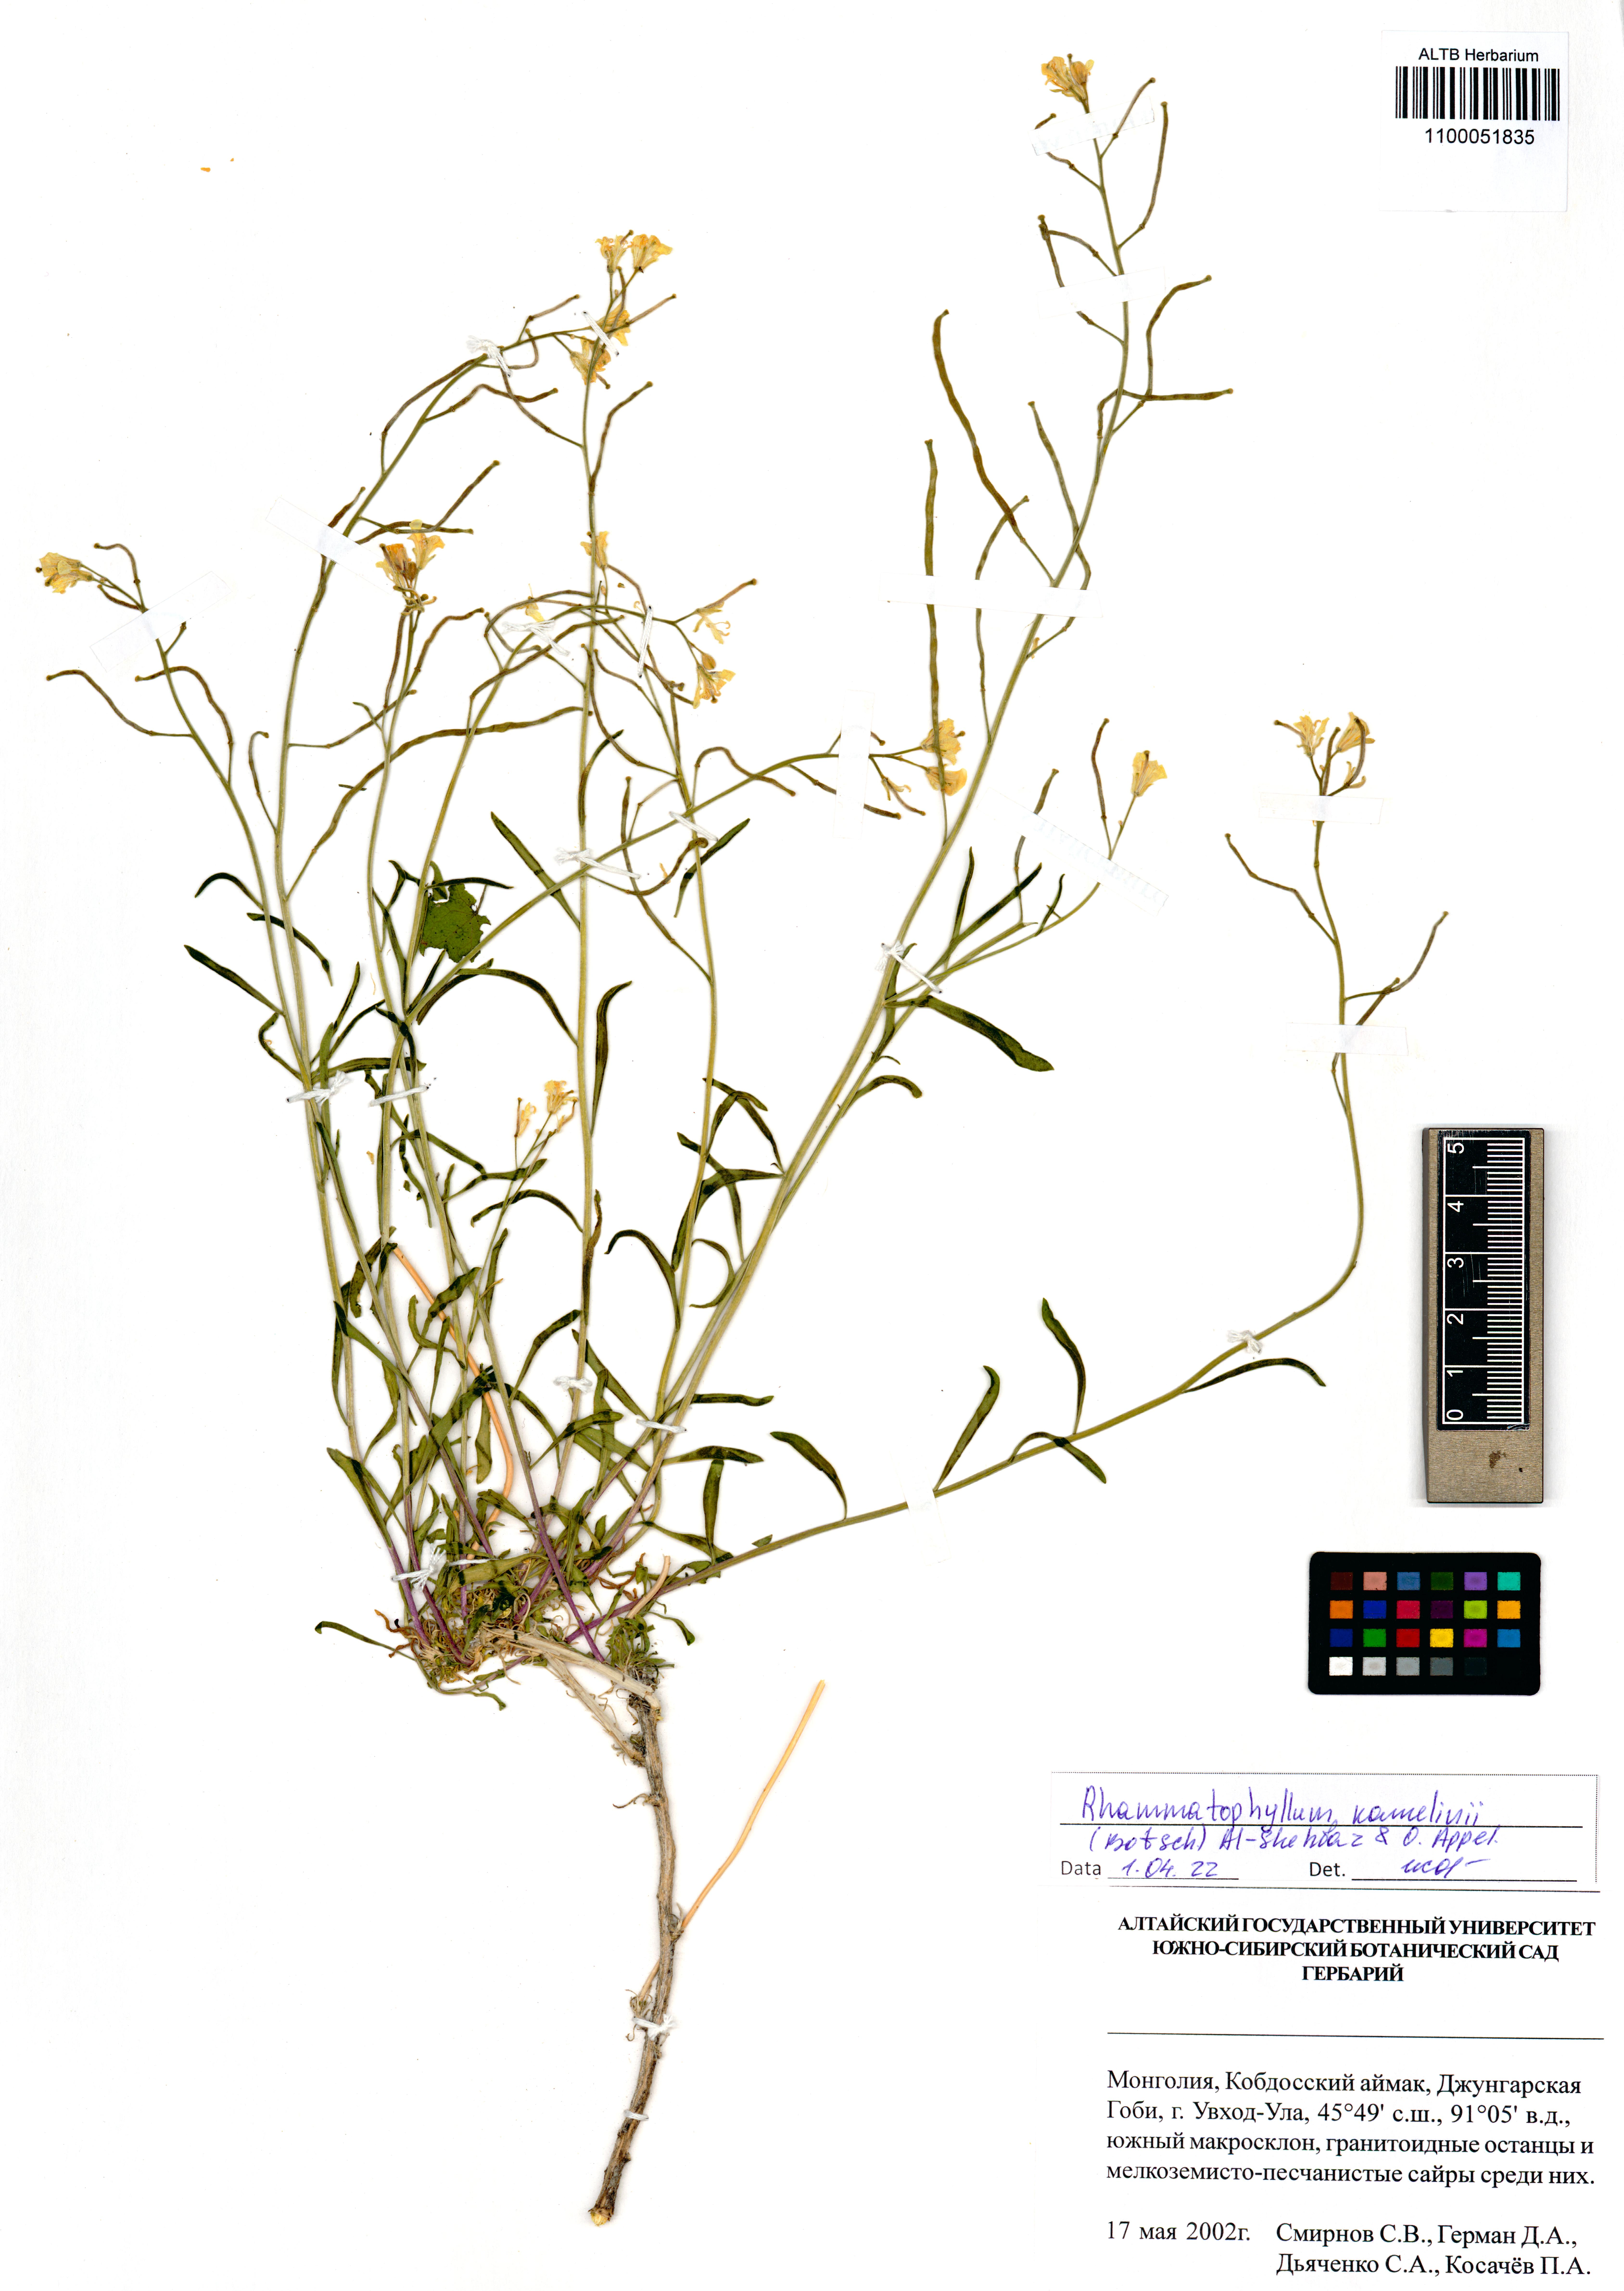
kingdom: Plantae
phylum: Tracheophyta
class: Magnoliopsida
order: Brassicales
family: Brassicaceae
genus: Rhammatophyllum
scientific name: Rhammatophyllum kamelinii
